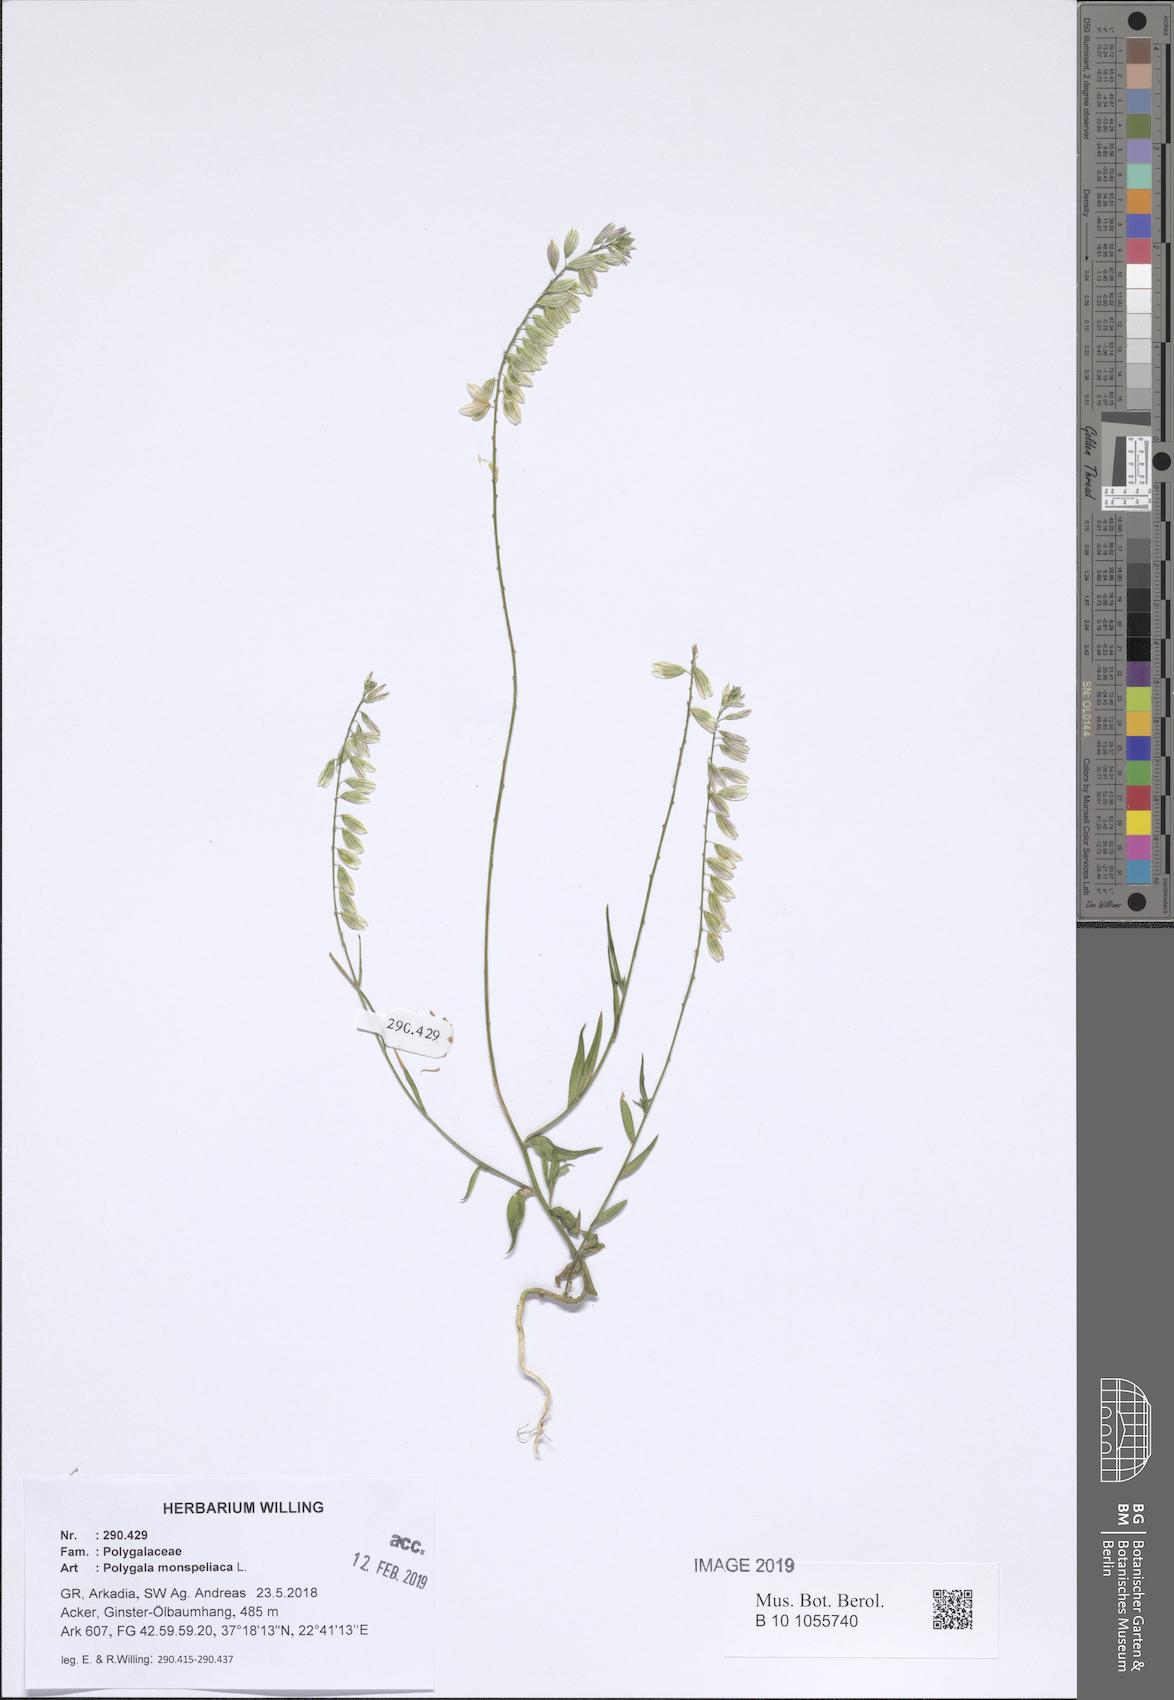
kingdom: Plantae
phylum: Tracheophyta
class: Magnoliopsida
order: Fabales
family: Polygalaceae
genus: Polygala
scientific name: Polygala monspeliaca
